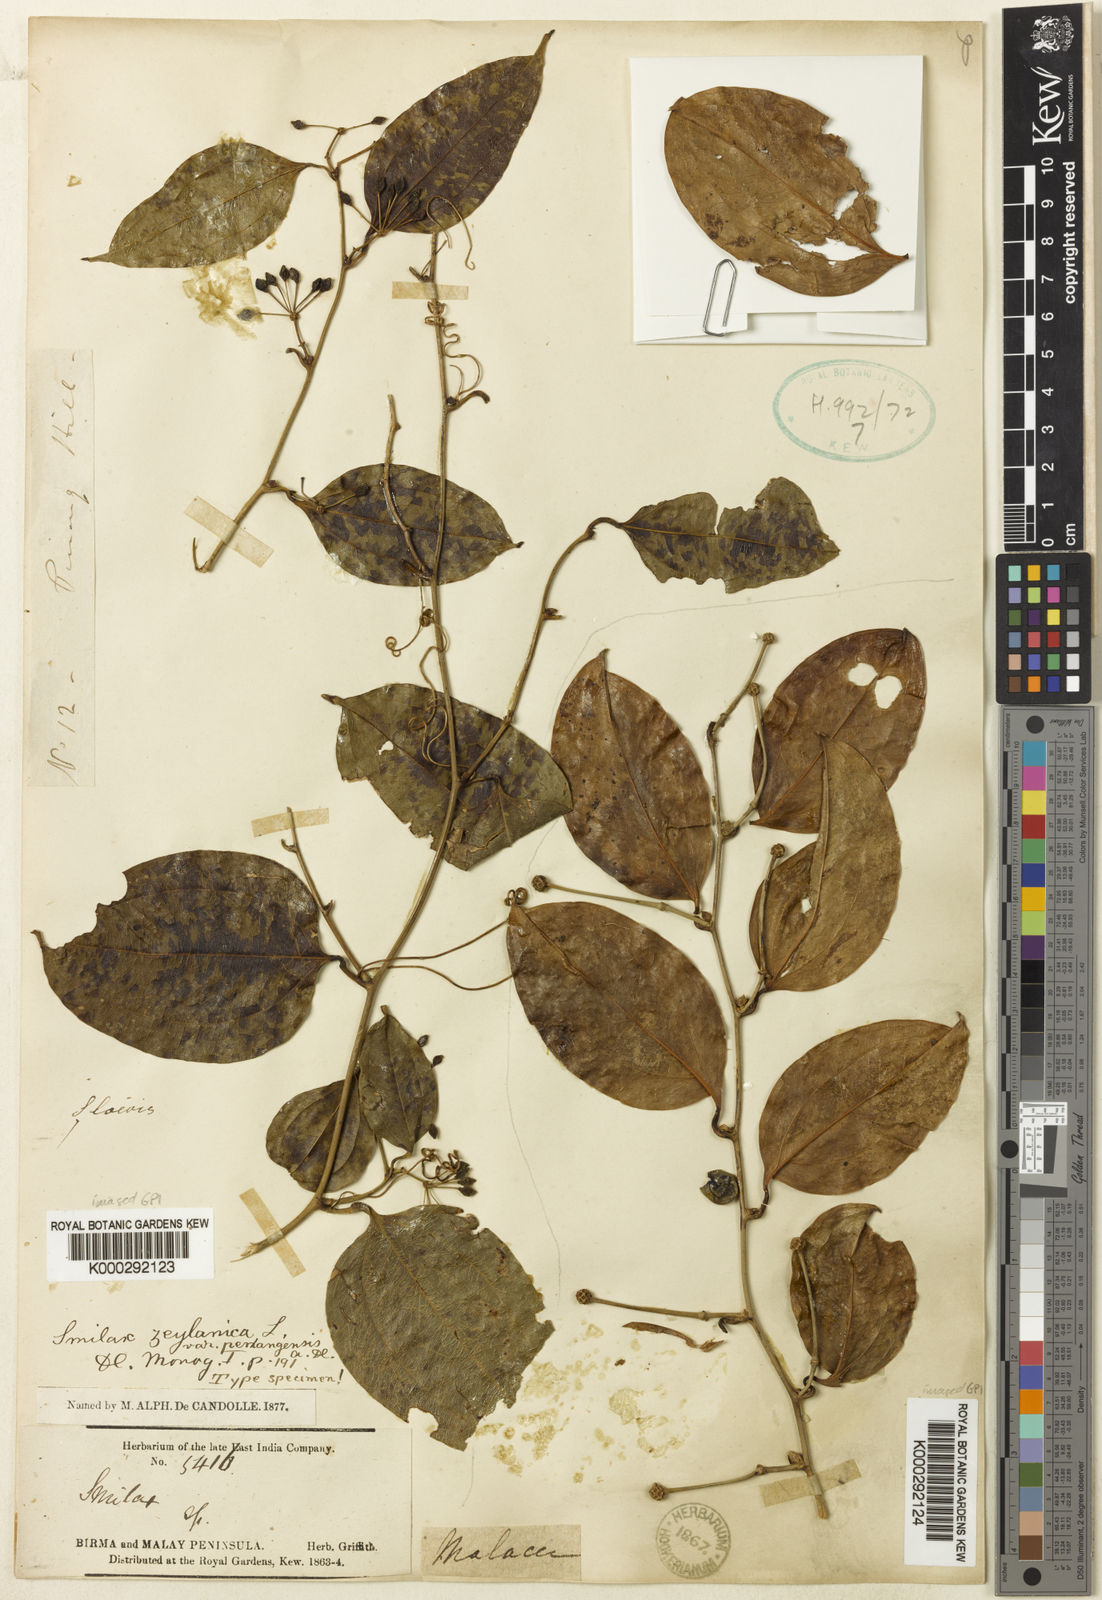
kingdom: Plantae
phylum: Tracheophyta
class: Liliopsida
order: Liliales
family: Smilacaceae
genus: Smilax
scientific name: Smilax luzonensis
